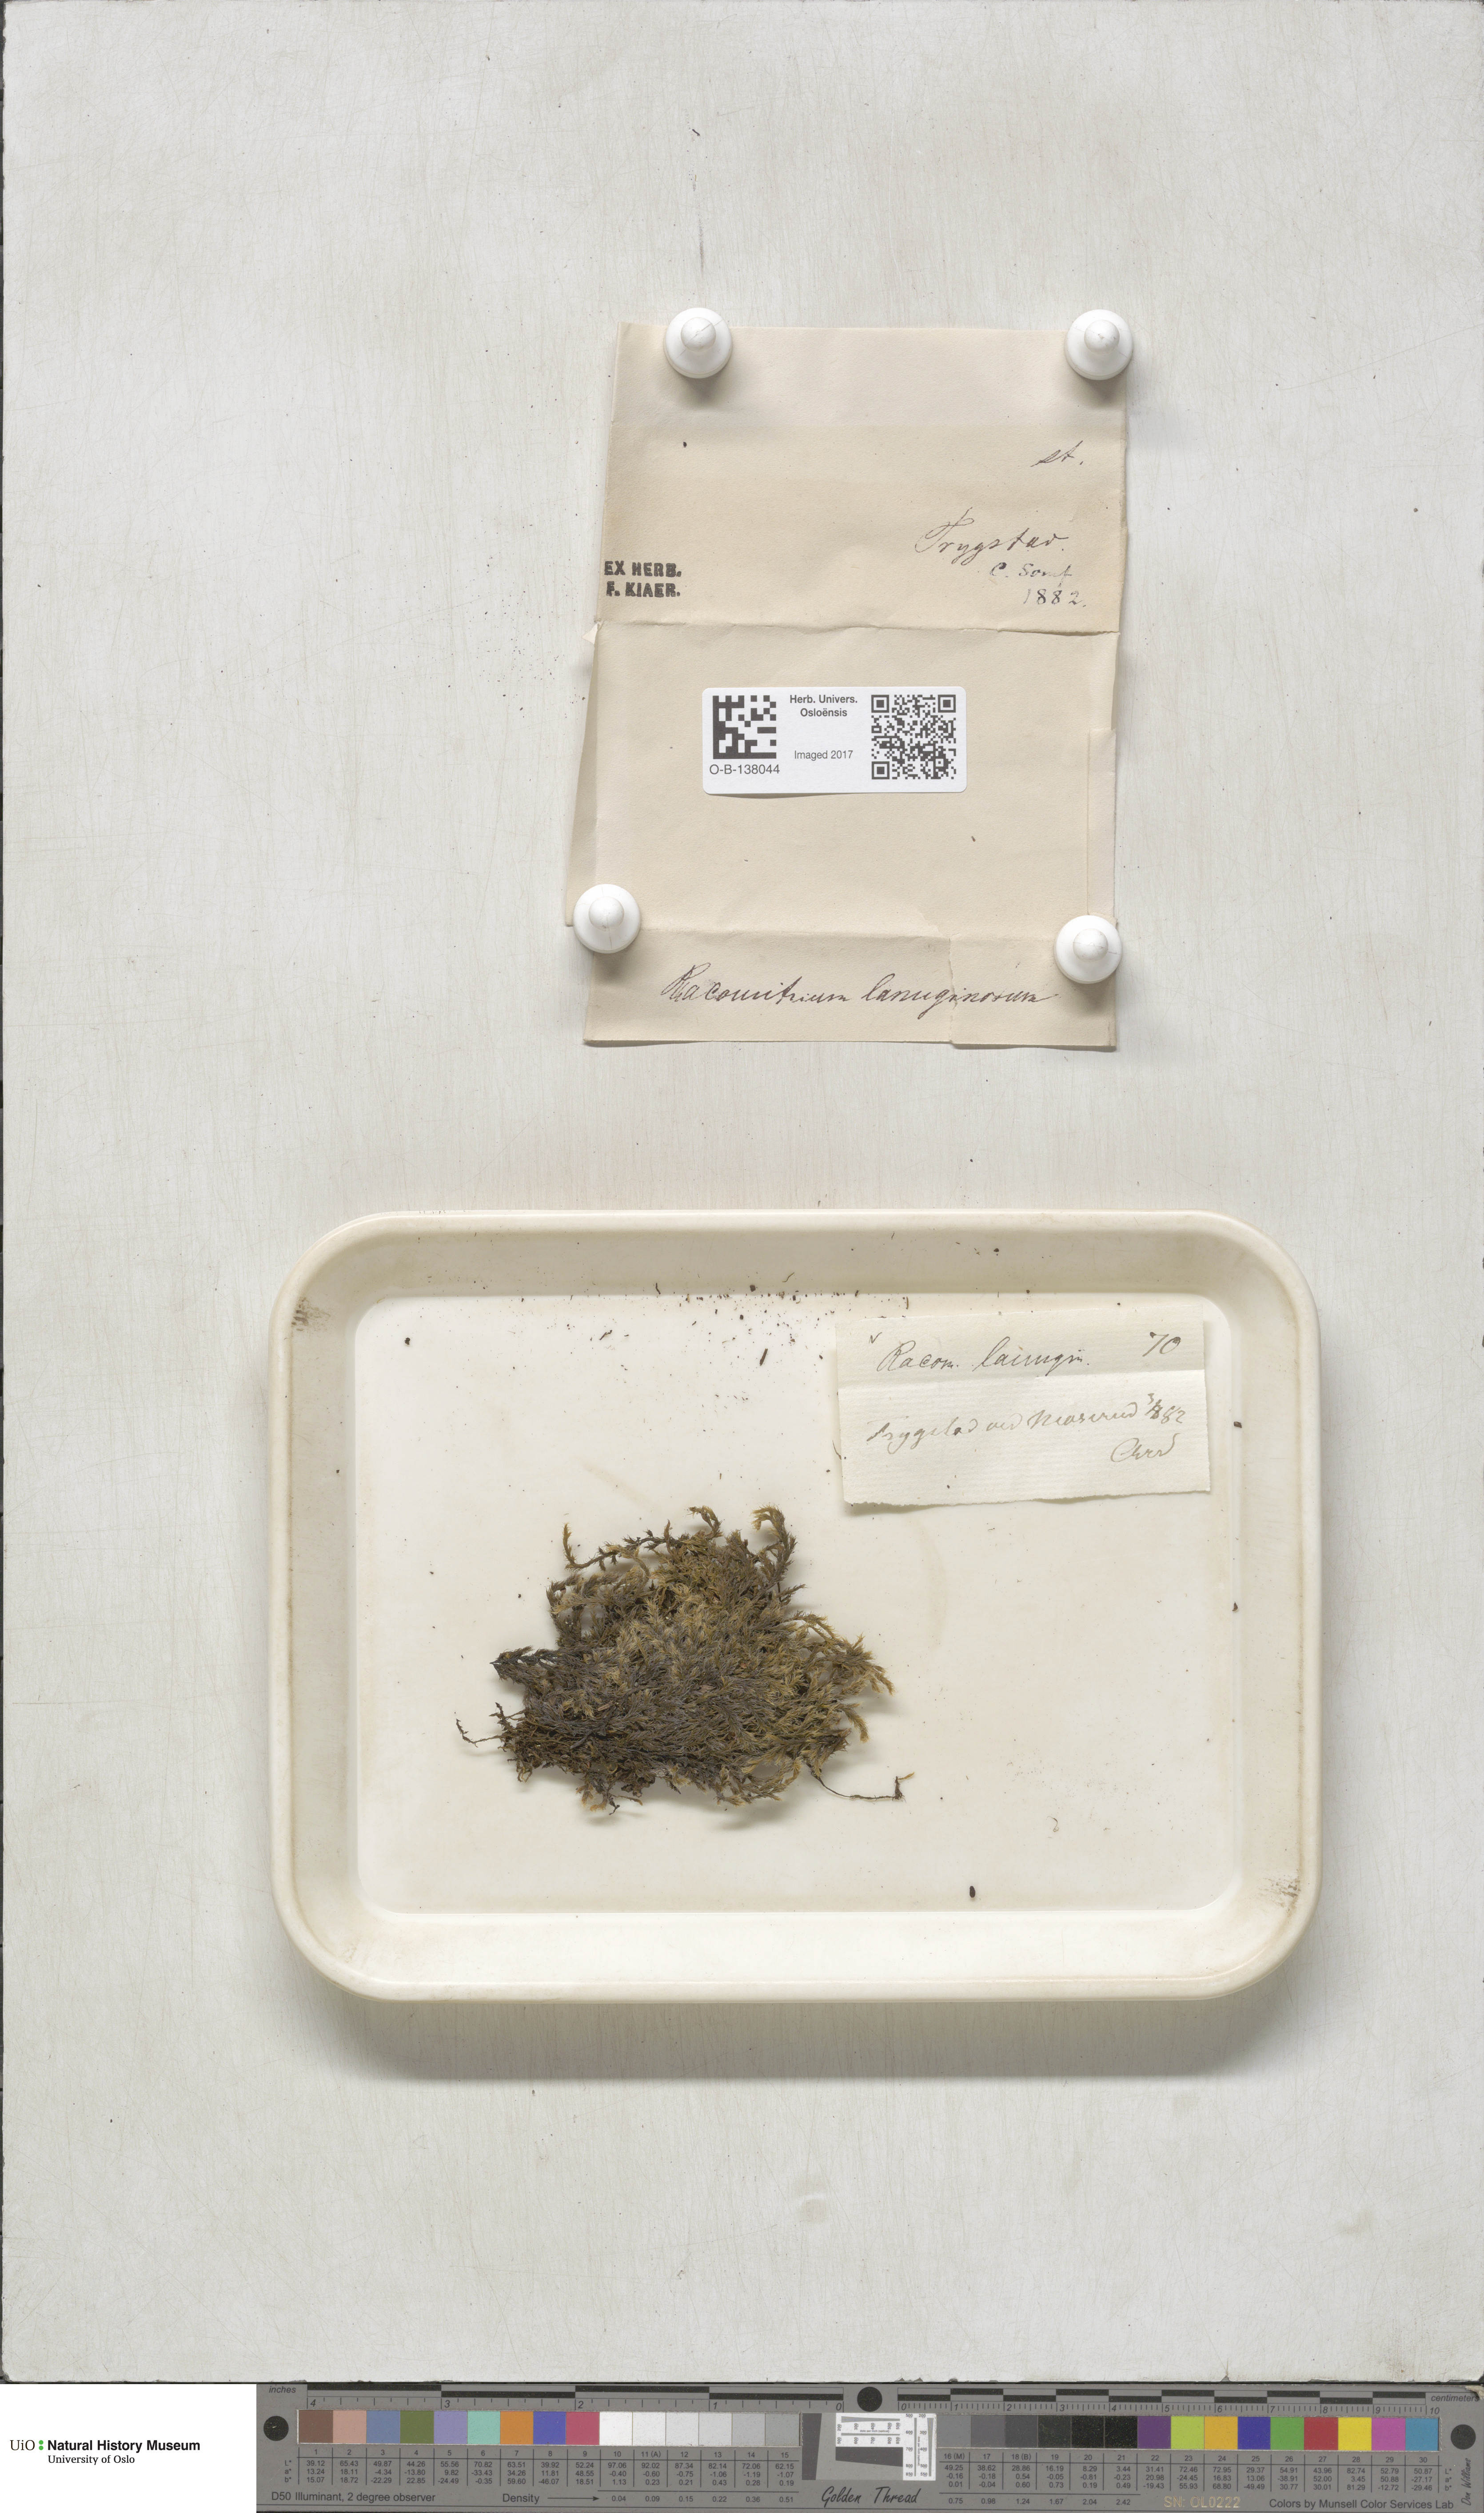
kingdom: Plantae
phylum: Bryophyta
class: Bryopsida
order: Grimmiales
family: Grimmiaceae
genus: Racomitrium
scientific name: Racomitrium lanuginosum
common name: Hoary rock moss
